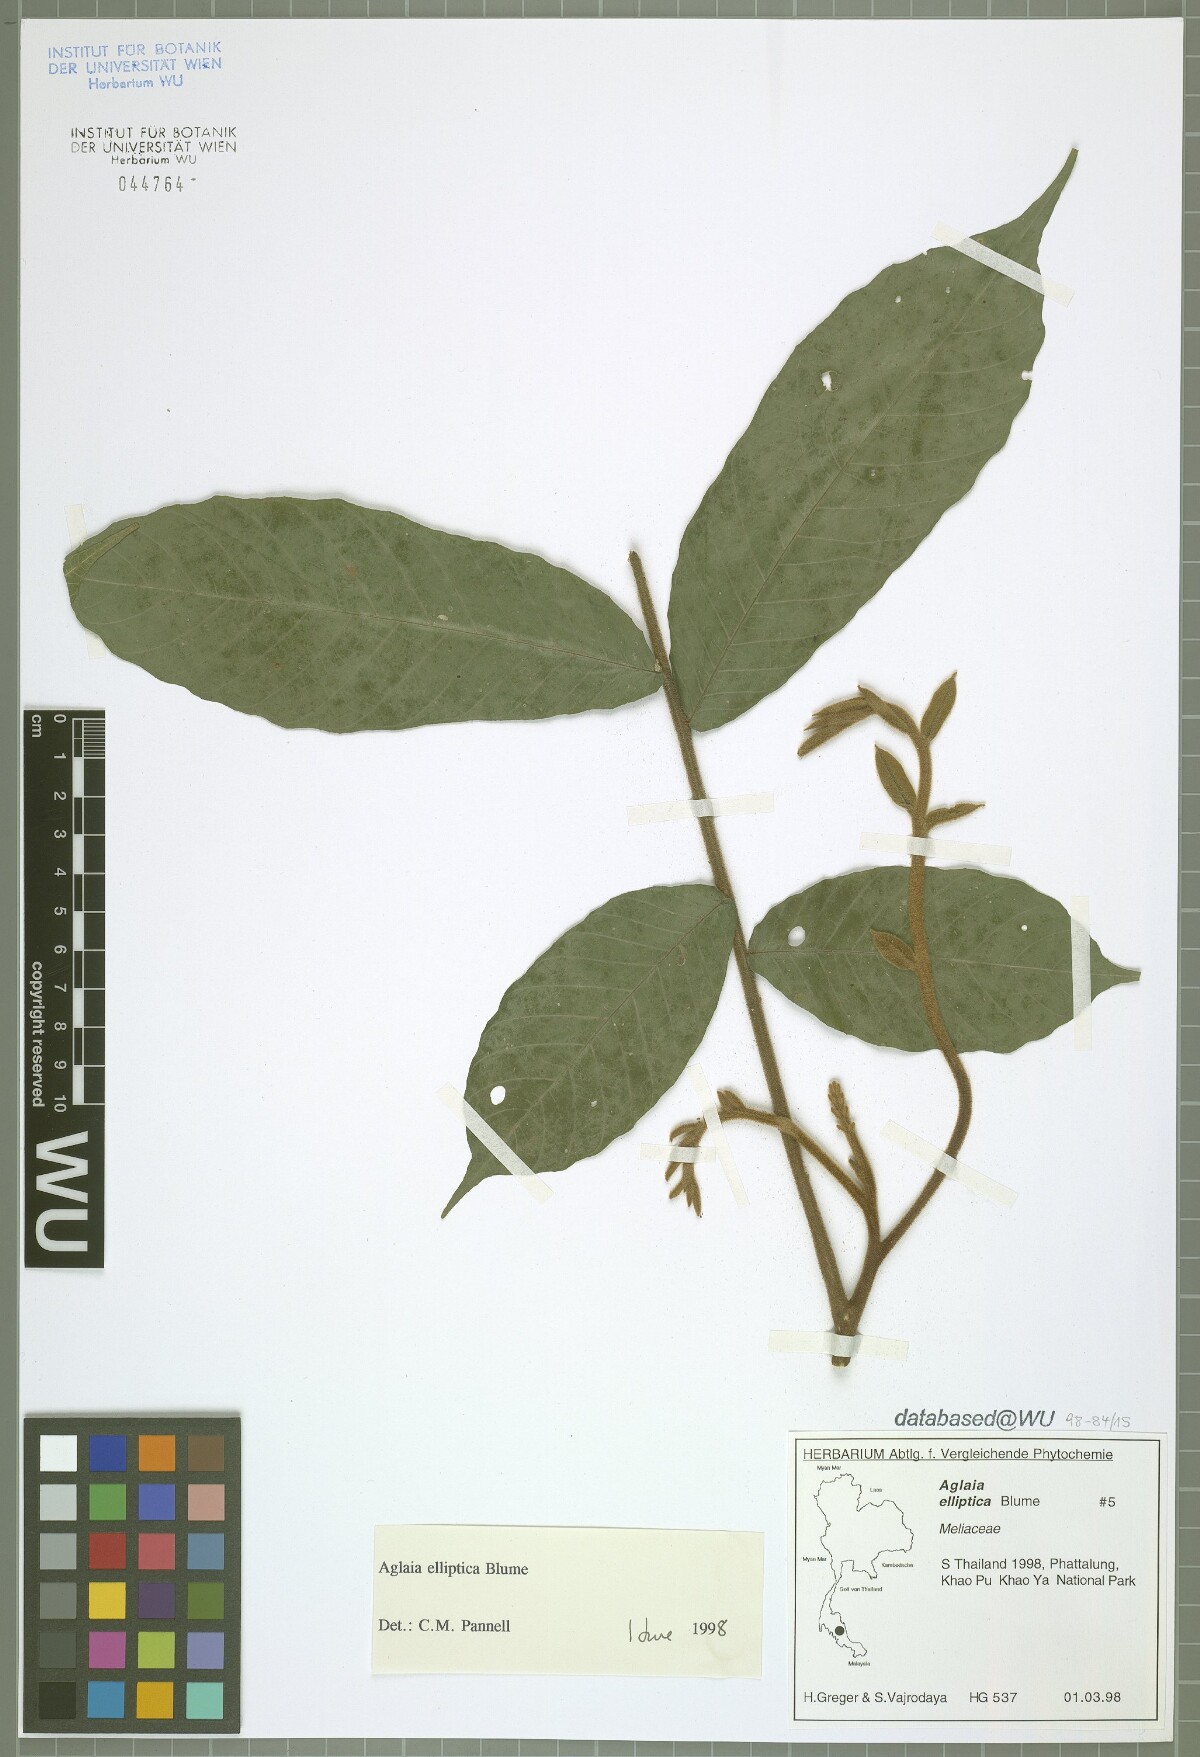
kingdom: Plantae
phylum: Tracheophyta
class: Magnoliopsida
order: Sapindales
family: Meliaceae
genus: Aglaia
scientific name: Aglaia elliptica
